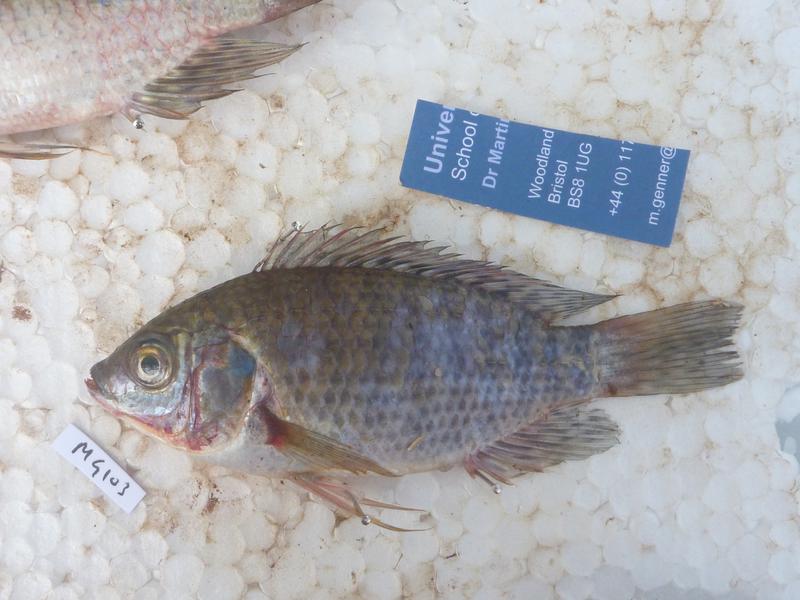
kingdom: Animalia
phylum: Chordata
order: Perciformes
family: Cichlidae
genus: Oreochromis
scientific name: Oreochromis leucostictus
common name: Blue spotted tilapia
